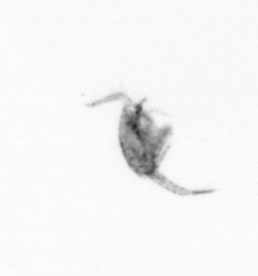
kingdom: Animalia
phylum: Arthropoda
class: Copepoda
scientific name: Copepoda
